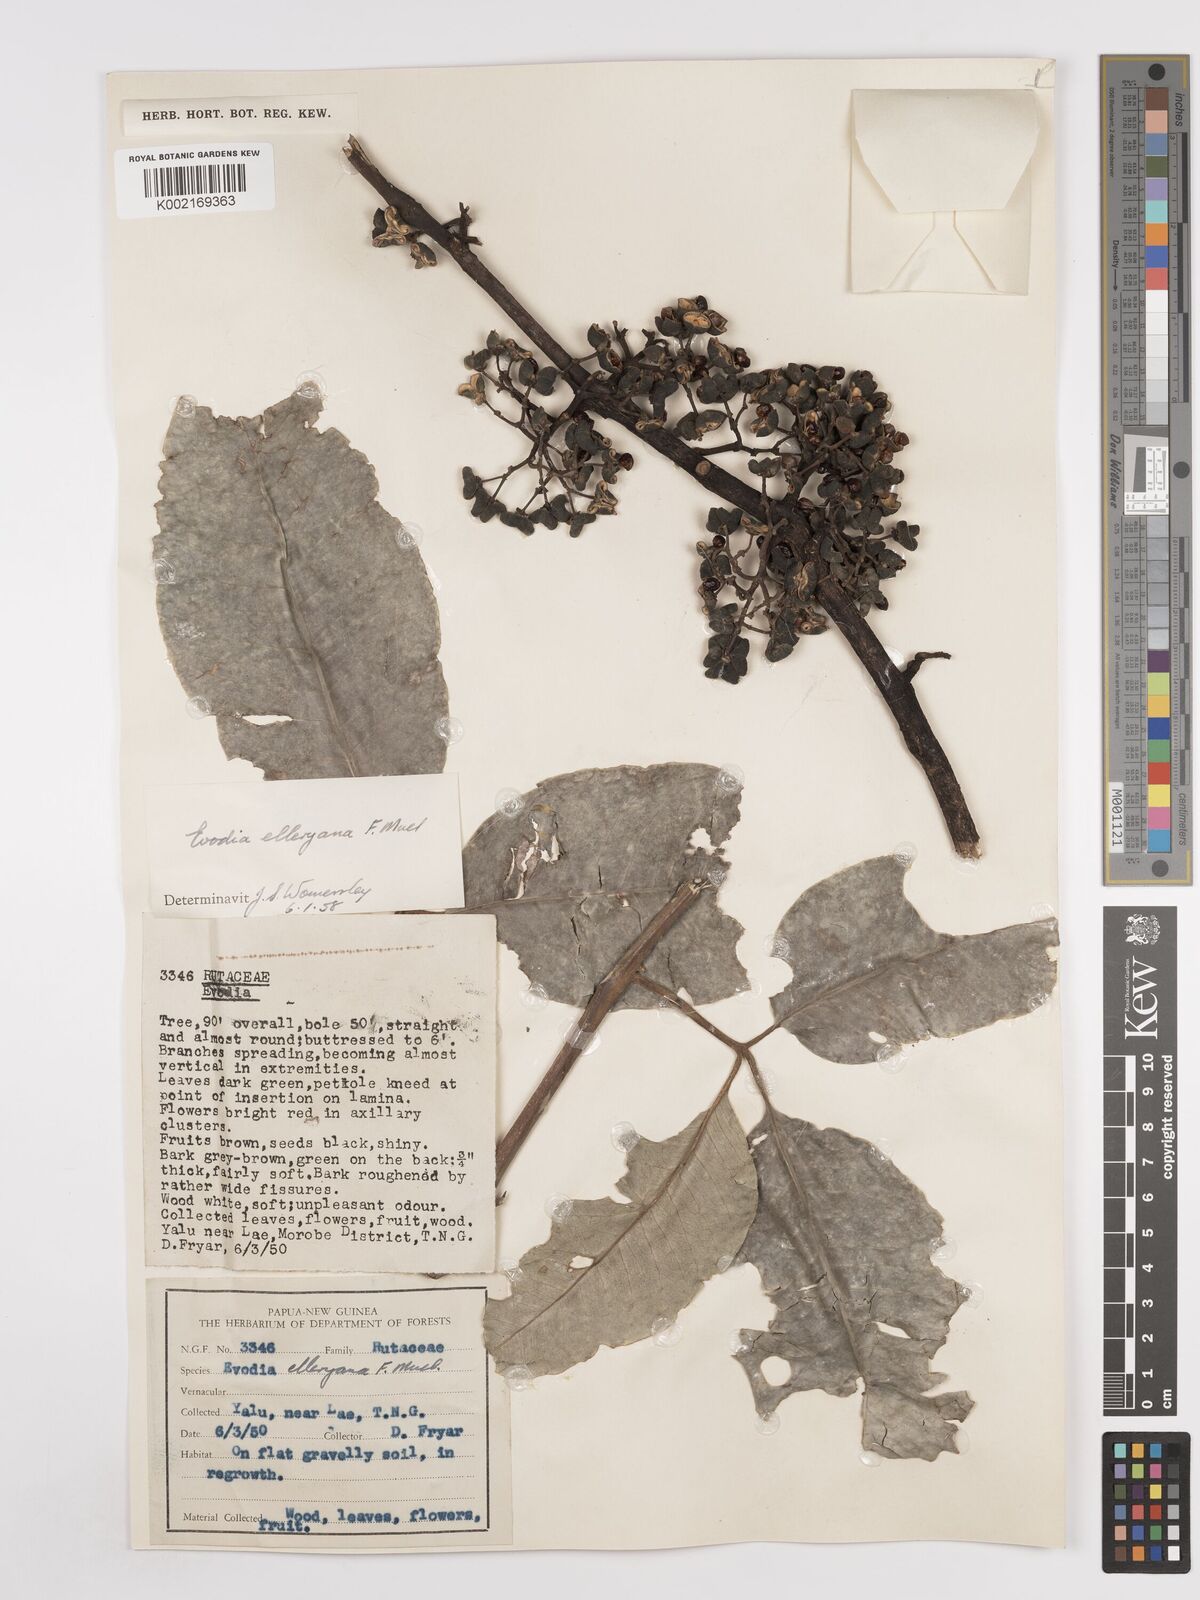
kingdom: Plantae
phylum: Tracheophyta
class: Magnoliopsida
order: Sapindales
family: Rutaceae
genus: Melicope
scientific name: Melicope elleryana
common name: Pink euodia
